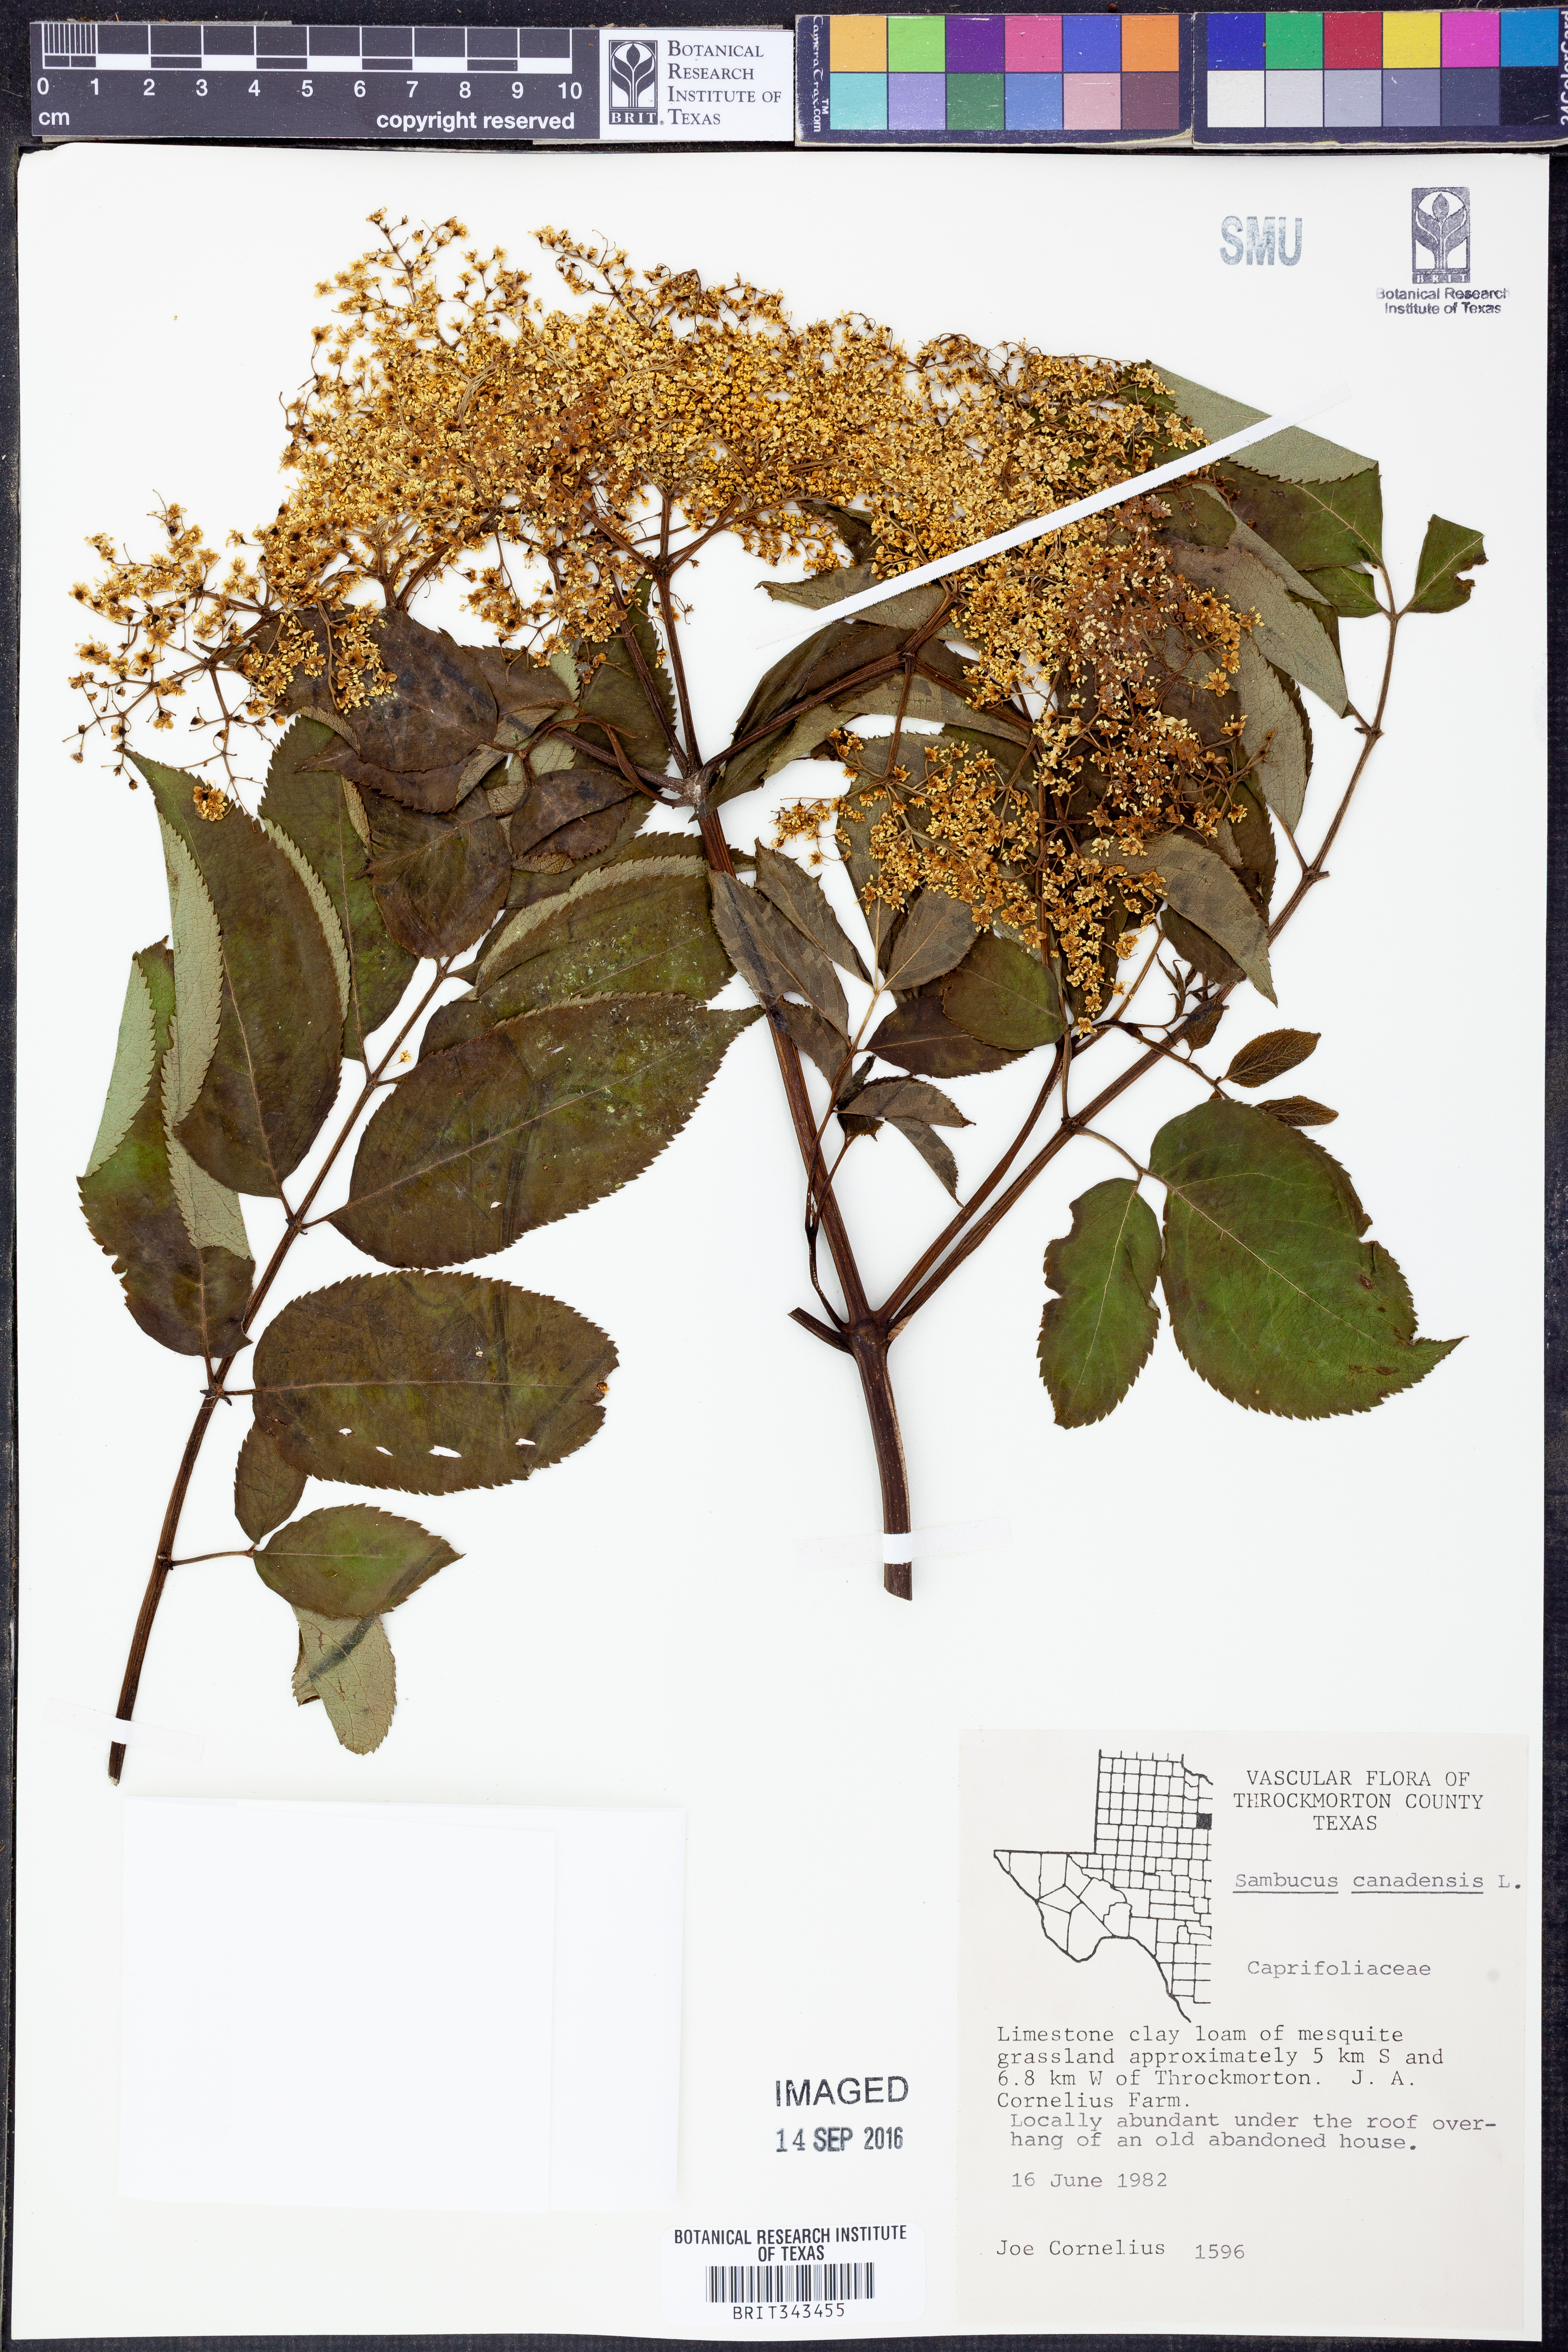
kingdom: Plantae
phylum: Tracheophyta
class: Magnoliopsida
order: Dipsacales
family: Viburnaceae
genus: Sambucus
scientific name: Sambucus canadensis
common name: American elder
